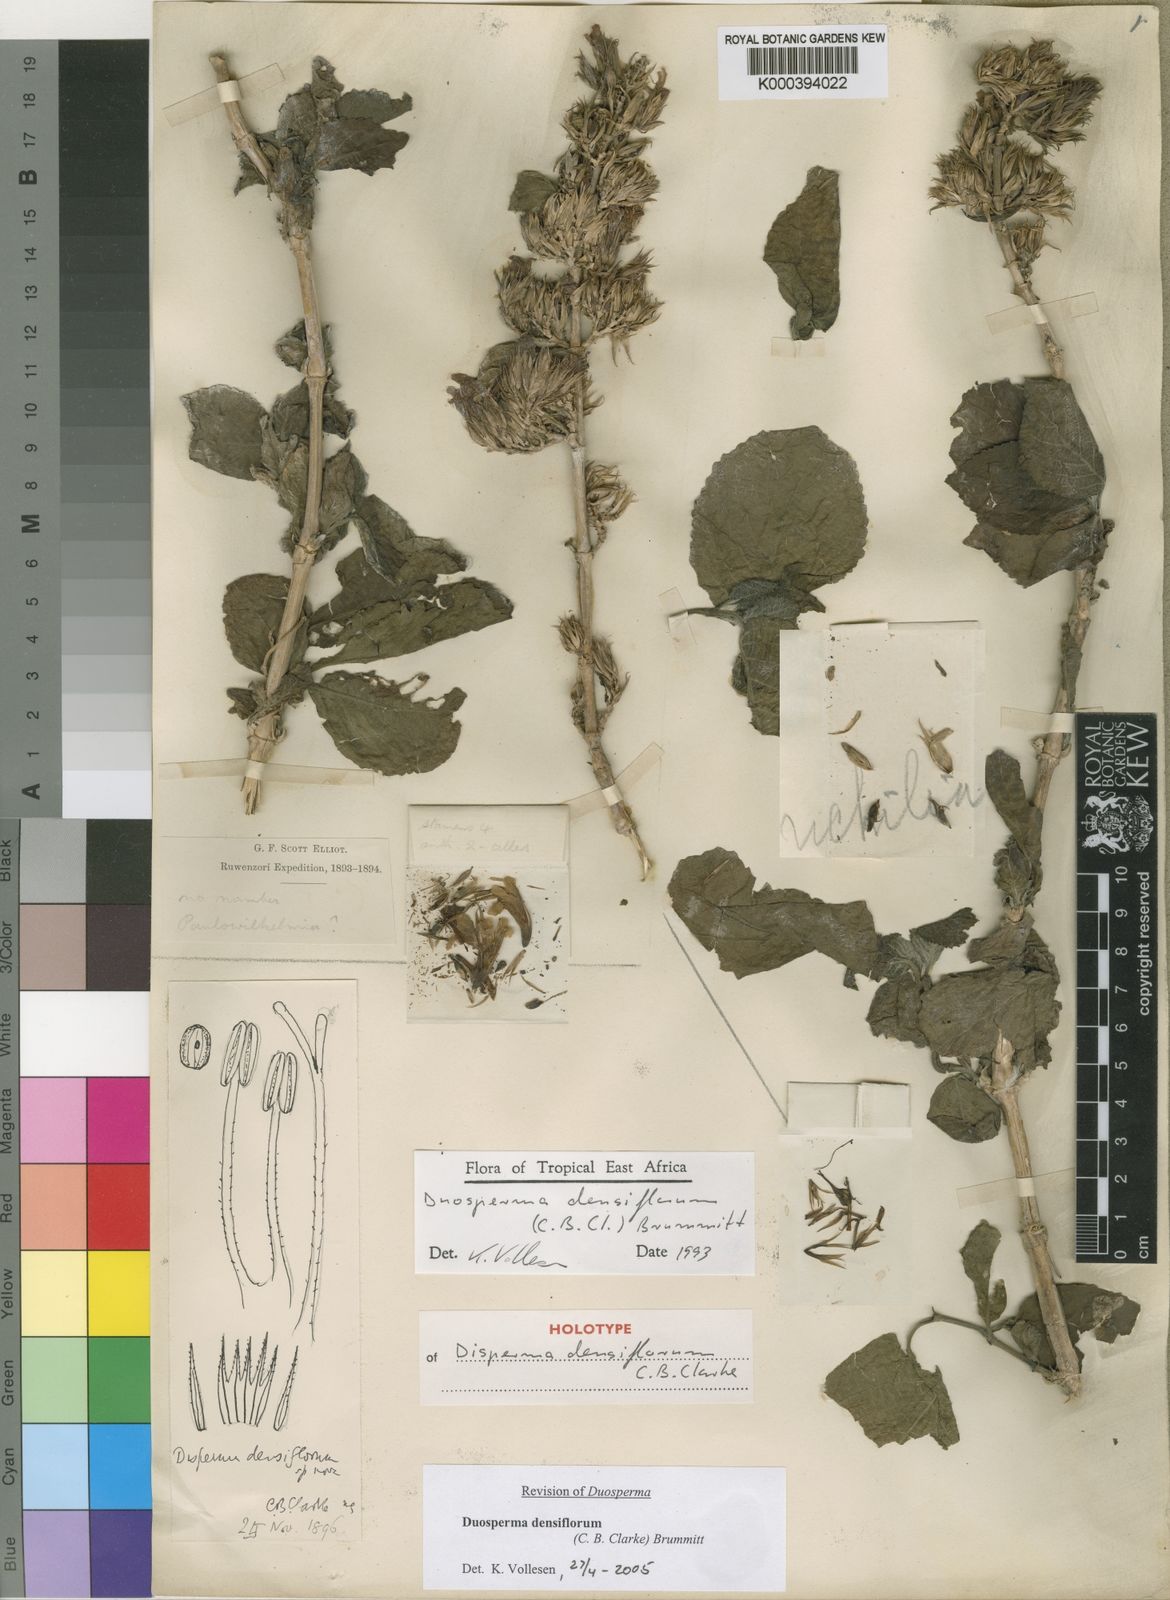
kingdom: Plantae
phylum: Tracheophyta
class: Magnoliopsida
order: Lamiales
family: Acanthaceae
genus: Duosperma
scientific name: Duosperma densiflorum
